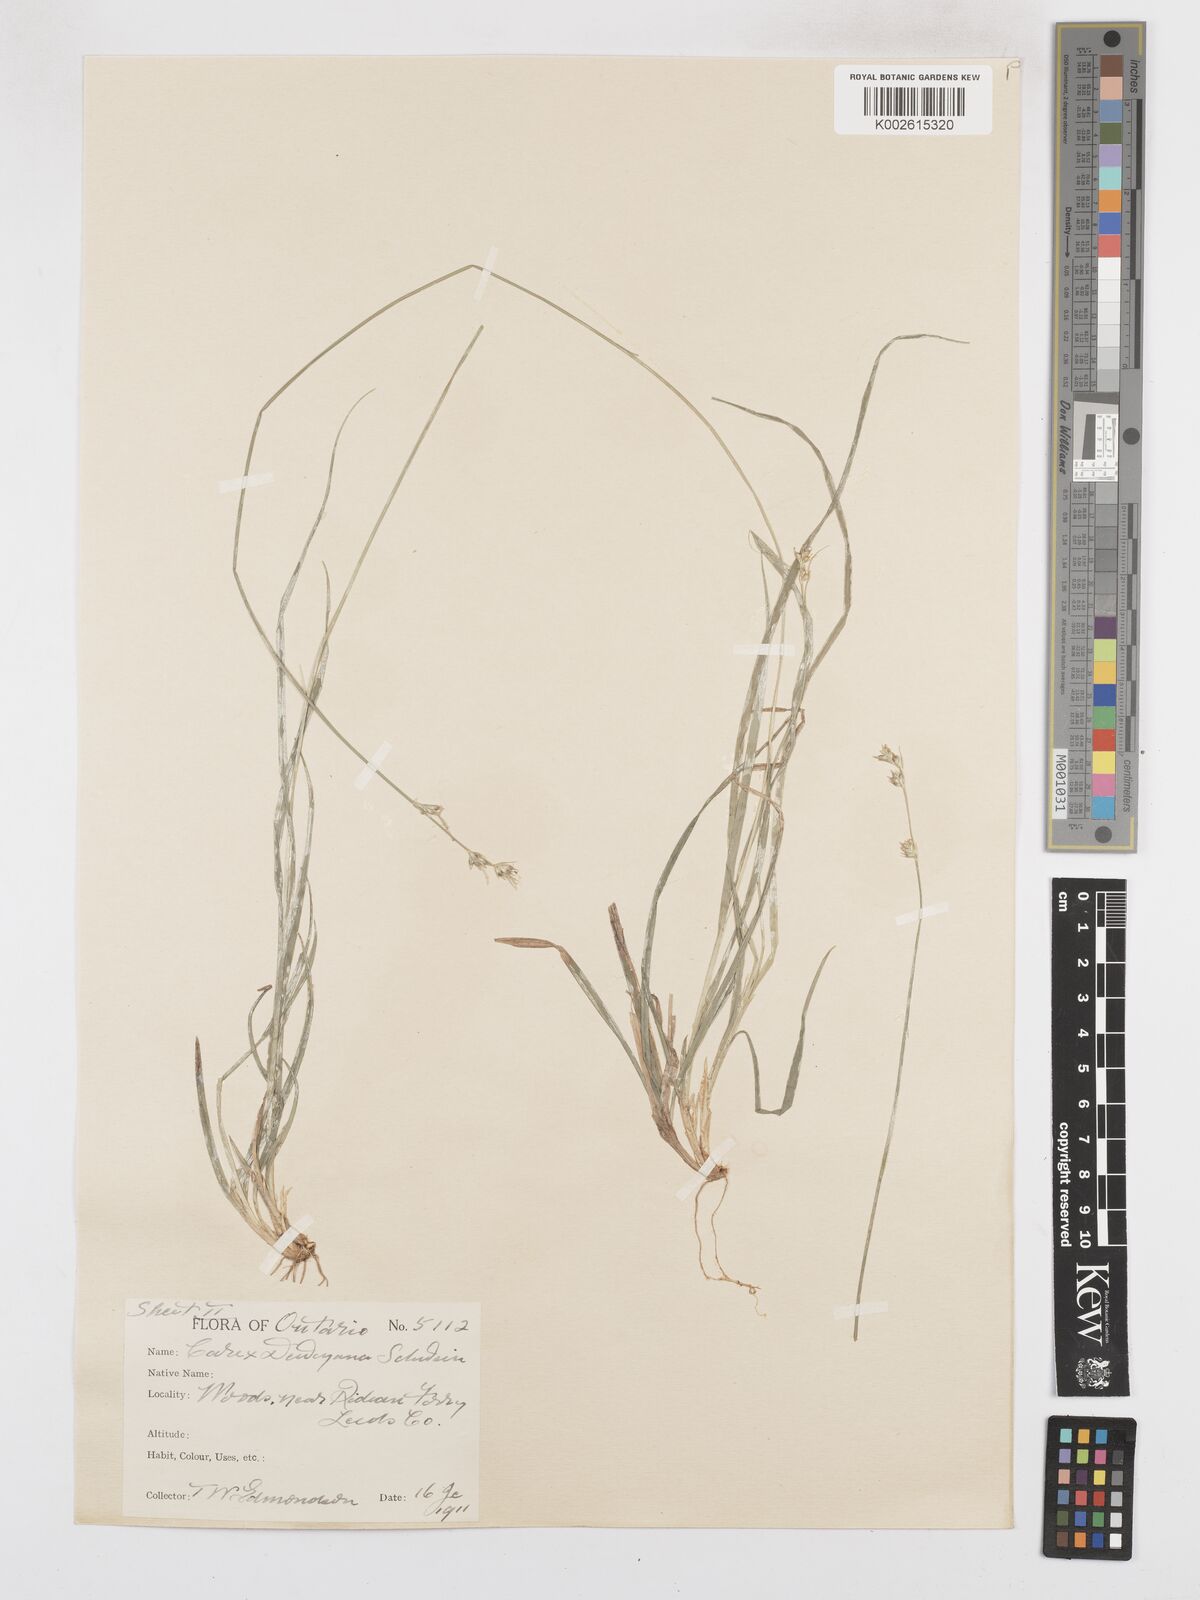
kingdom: Plantae
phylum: Tracheophyta
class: Liliopsida
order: Poales
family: Cyperaceae
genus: Carex
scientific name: Carex deweyana
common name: Dewey's sedge
